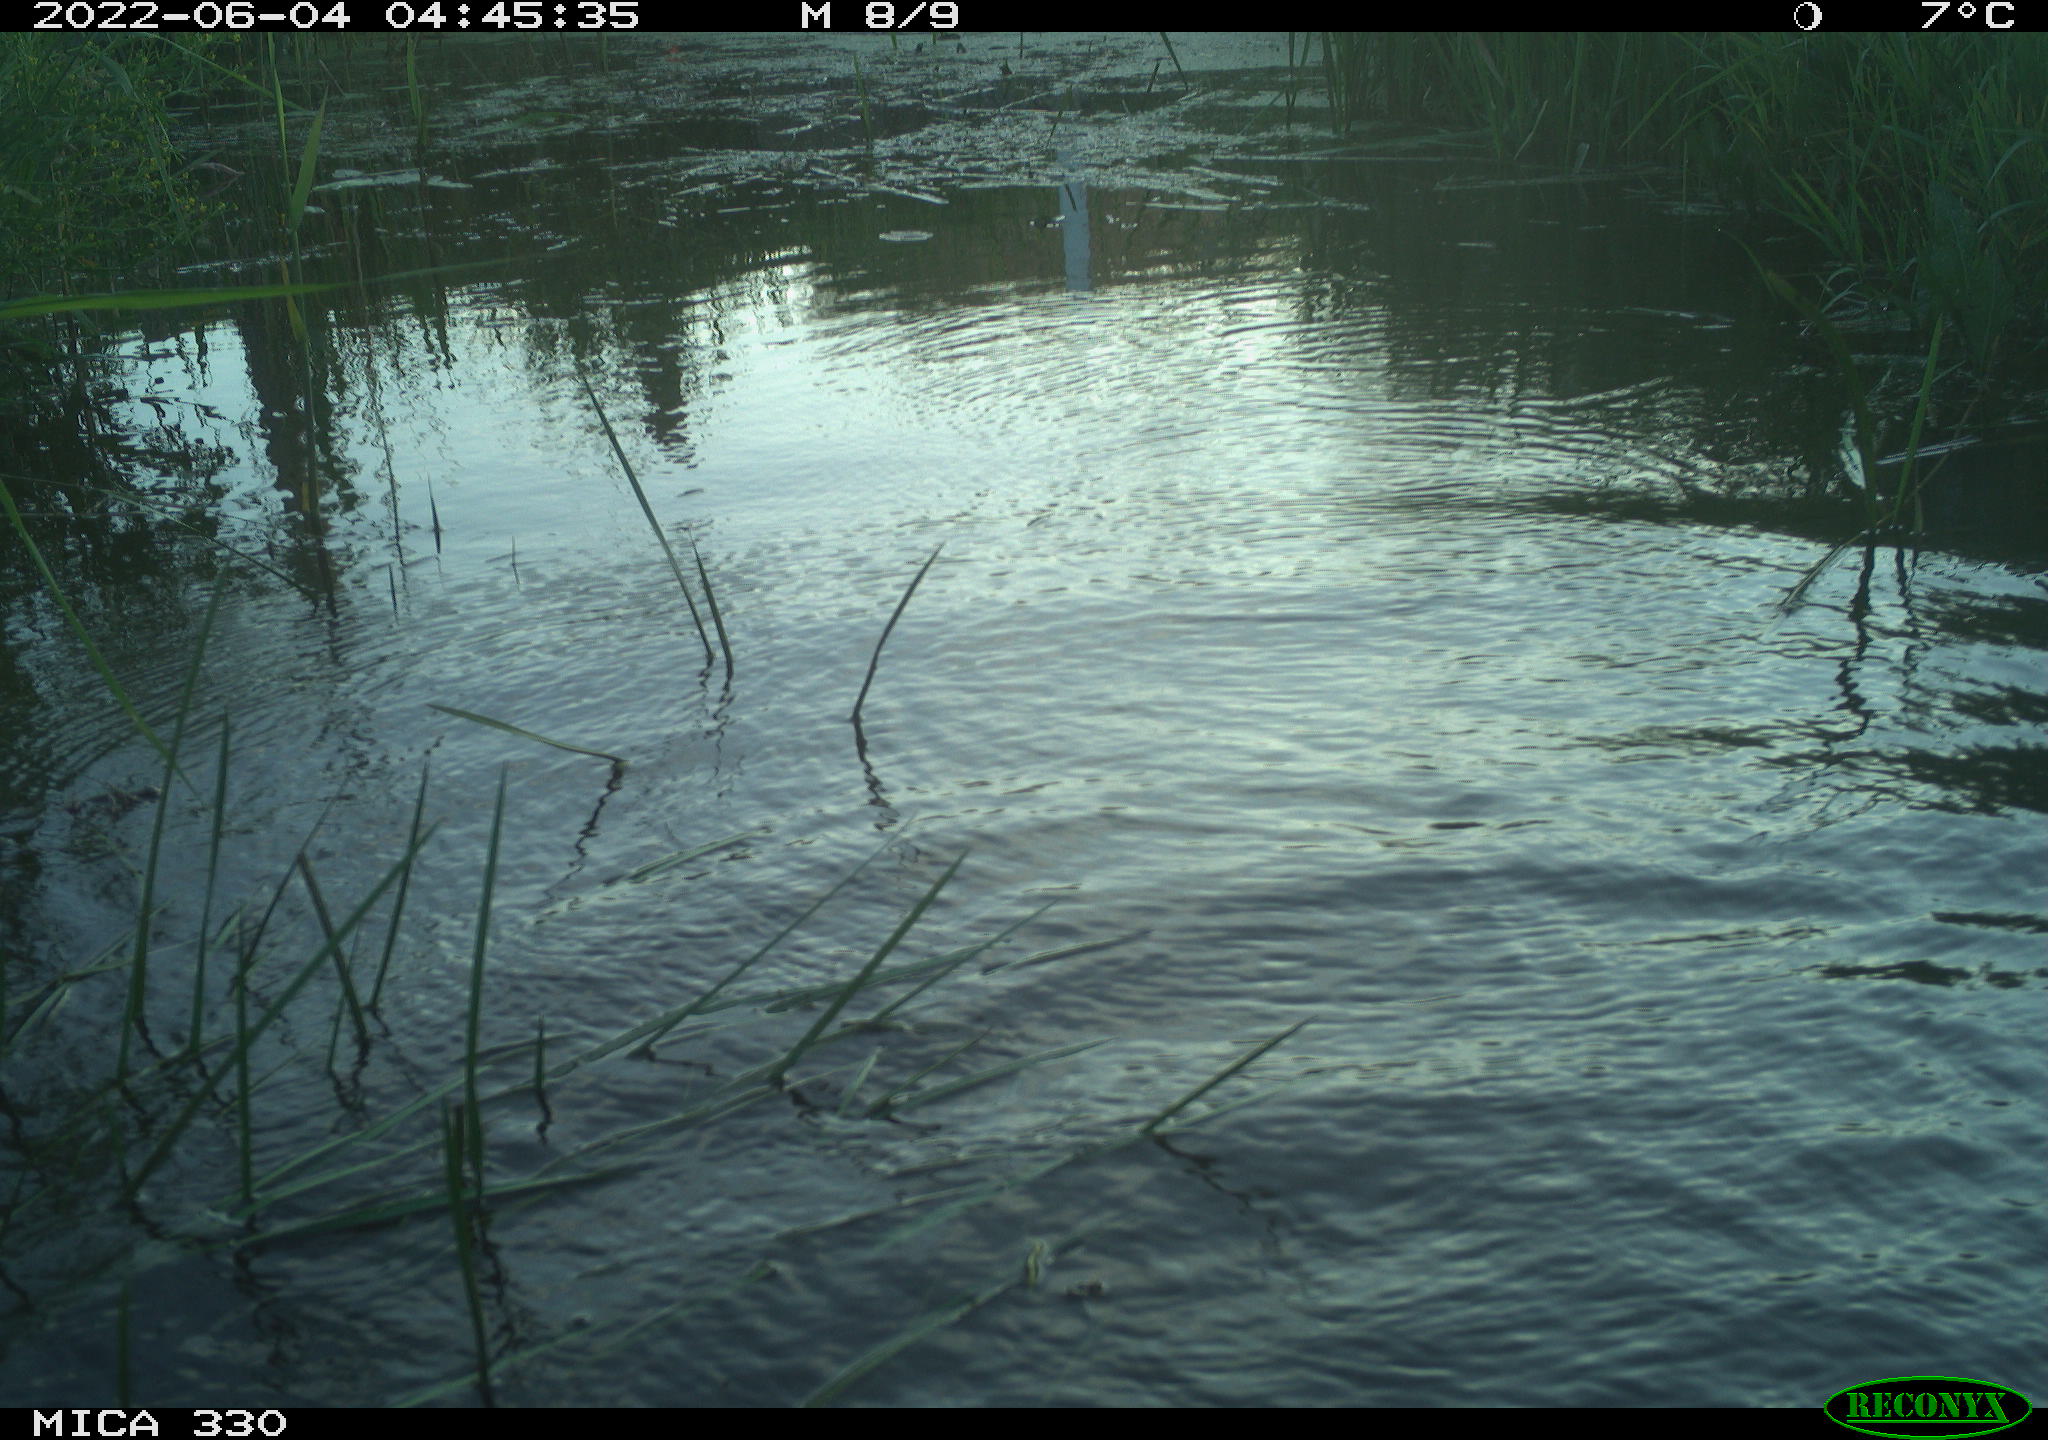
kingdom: Animalia
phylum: Chordata
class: Aves
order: Gruiformes
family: Rallidae
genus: Gallinula
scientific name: Gallinula chloropus
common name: Common moorhen
